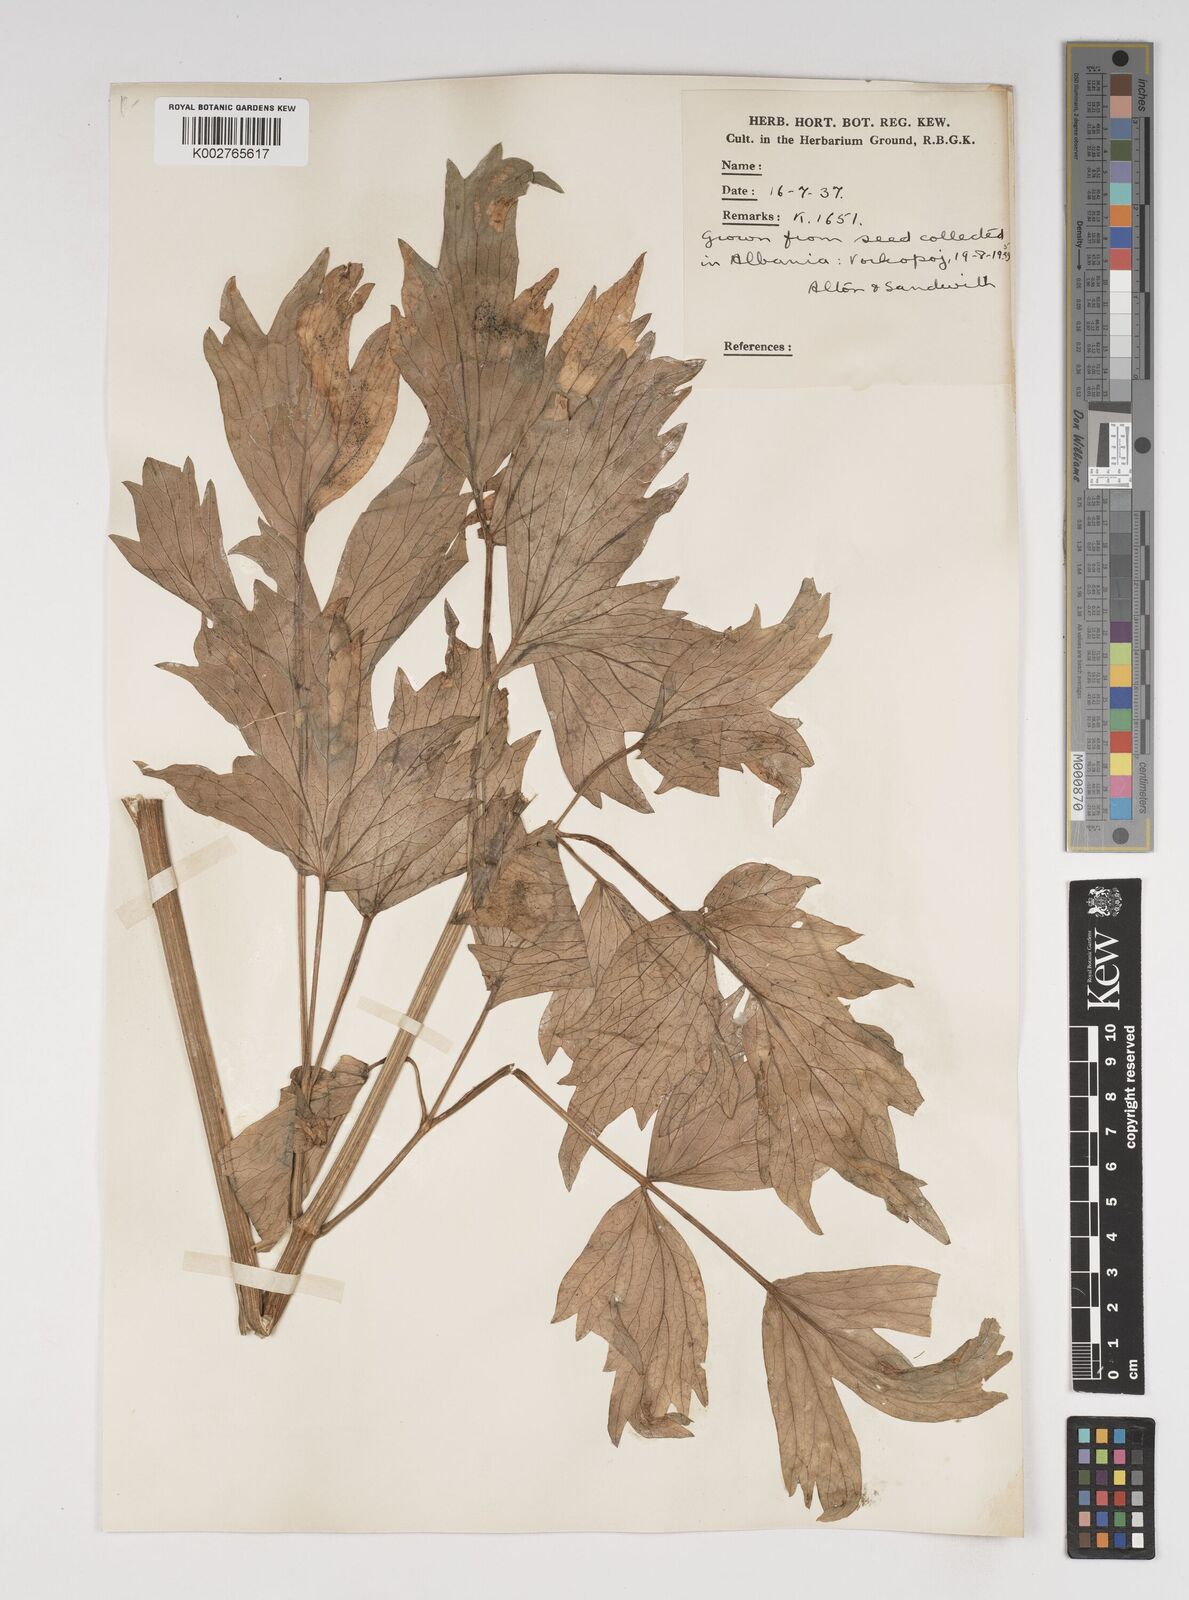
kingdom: Plantae
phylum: Tracheophyta
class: Magnoliopsida
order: Apiales
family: Apiaceae
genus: Levisticum
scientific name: Levisticum officinale
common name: Lovage
